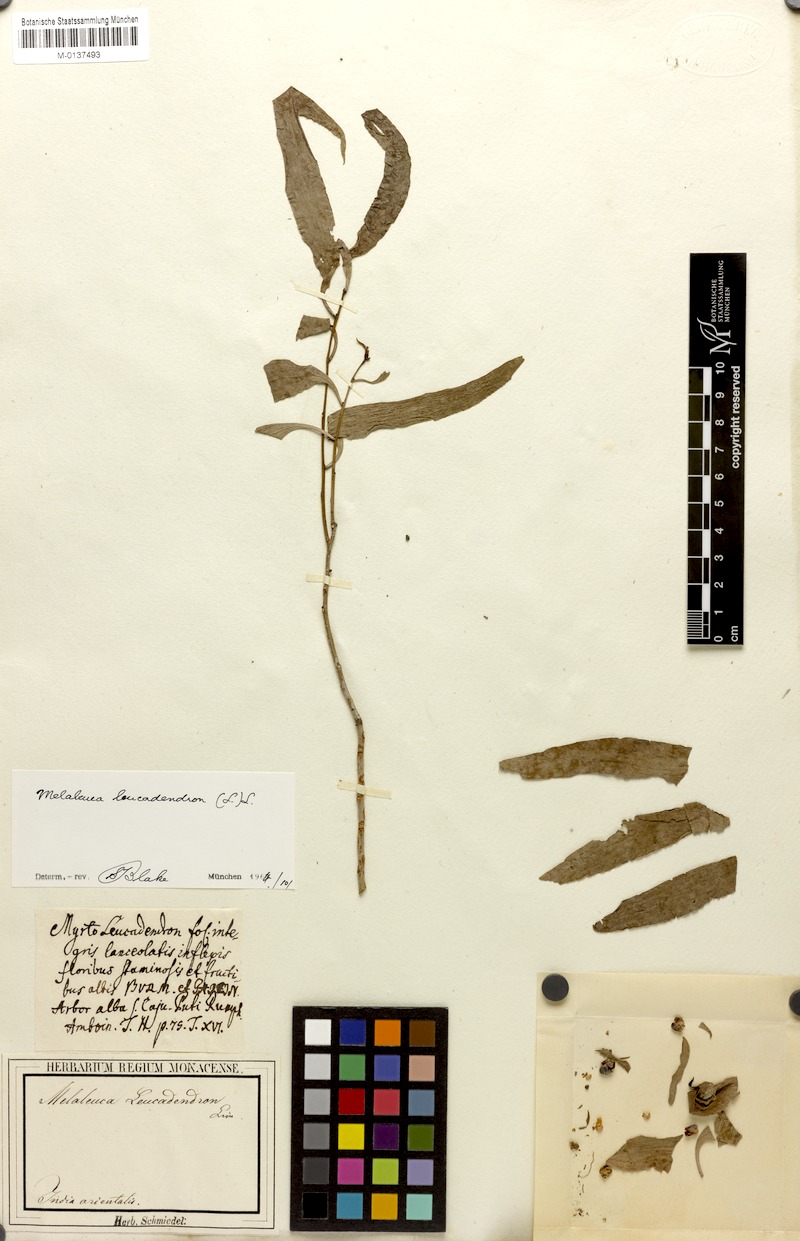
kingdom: Plantae
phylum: Tracheophyta
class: Magnoliopsida
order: Myrtales
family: Myrtaceae
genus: Melaleuca
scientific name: Melaleuca leucadendra
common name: Weeping paperbark
